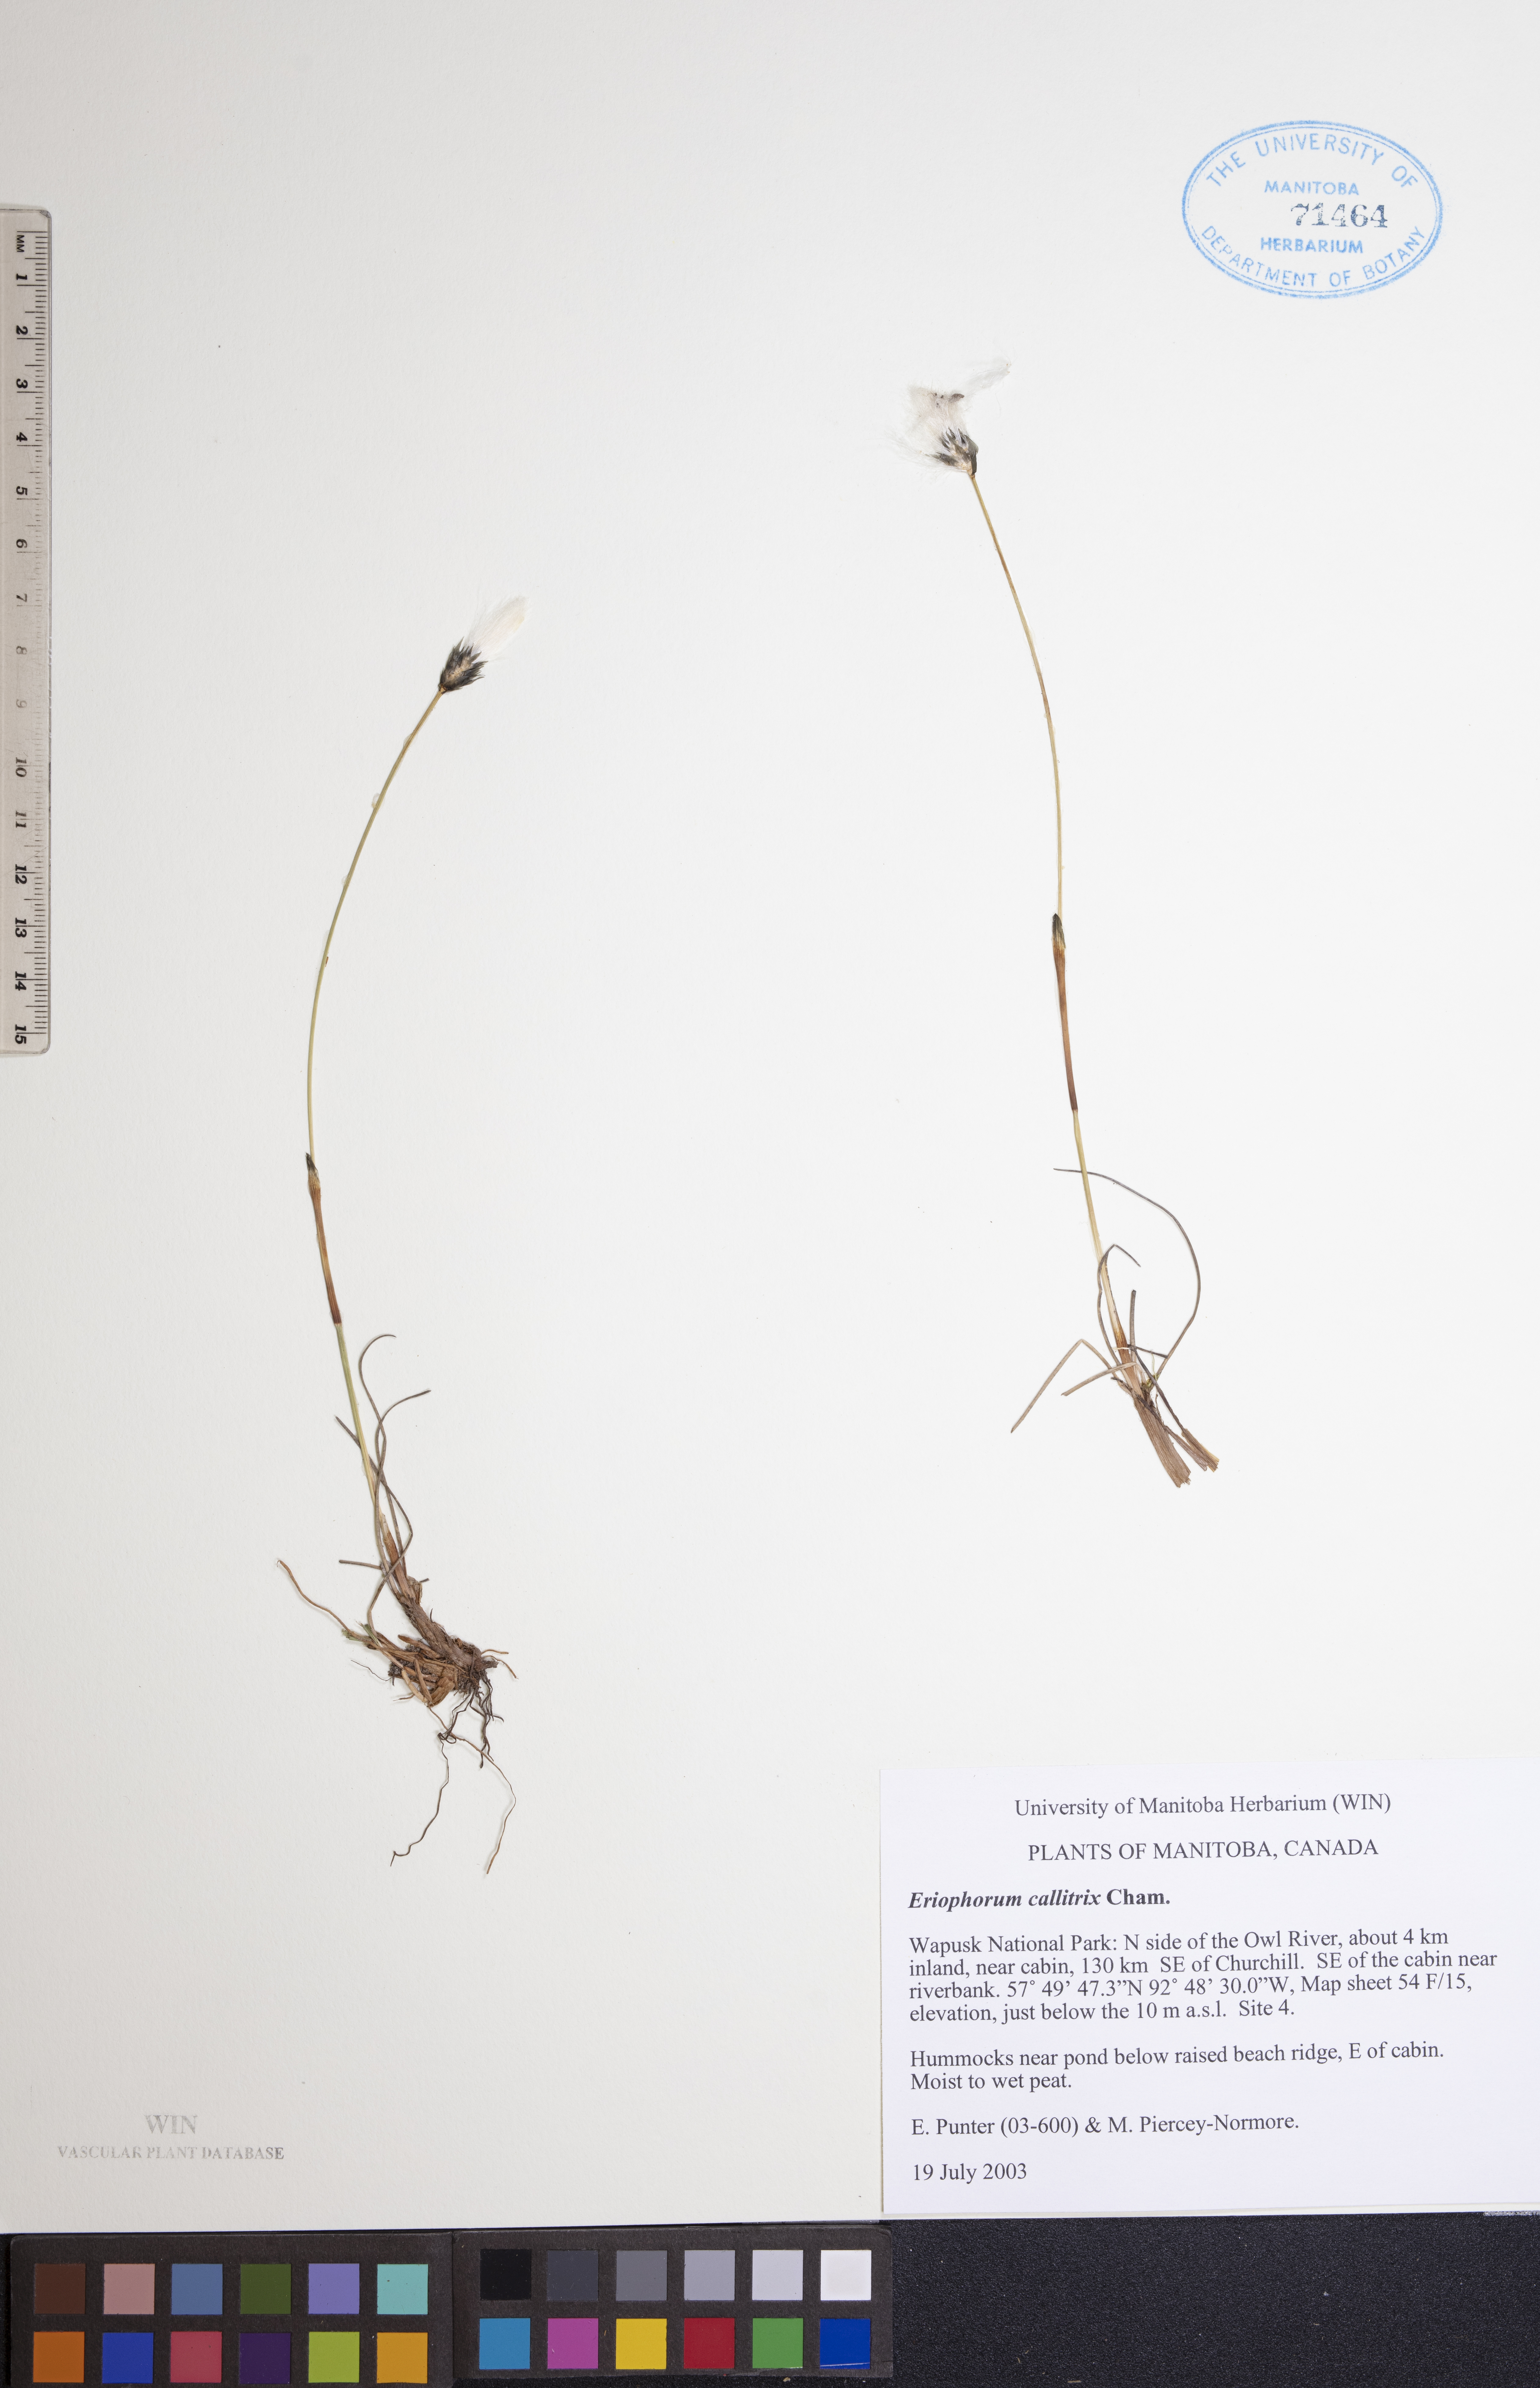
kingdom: Plantae
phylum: Tracheophyta
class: Liliopsida
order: Poales
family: Cyperaceae
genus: Eriophorum
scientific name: Eriophorum callitrix
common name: Arctic cottongrass
